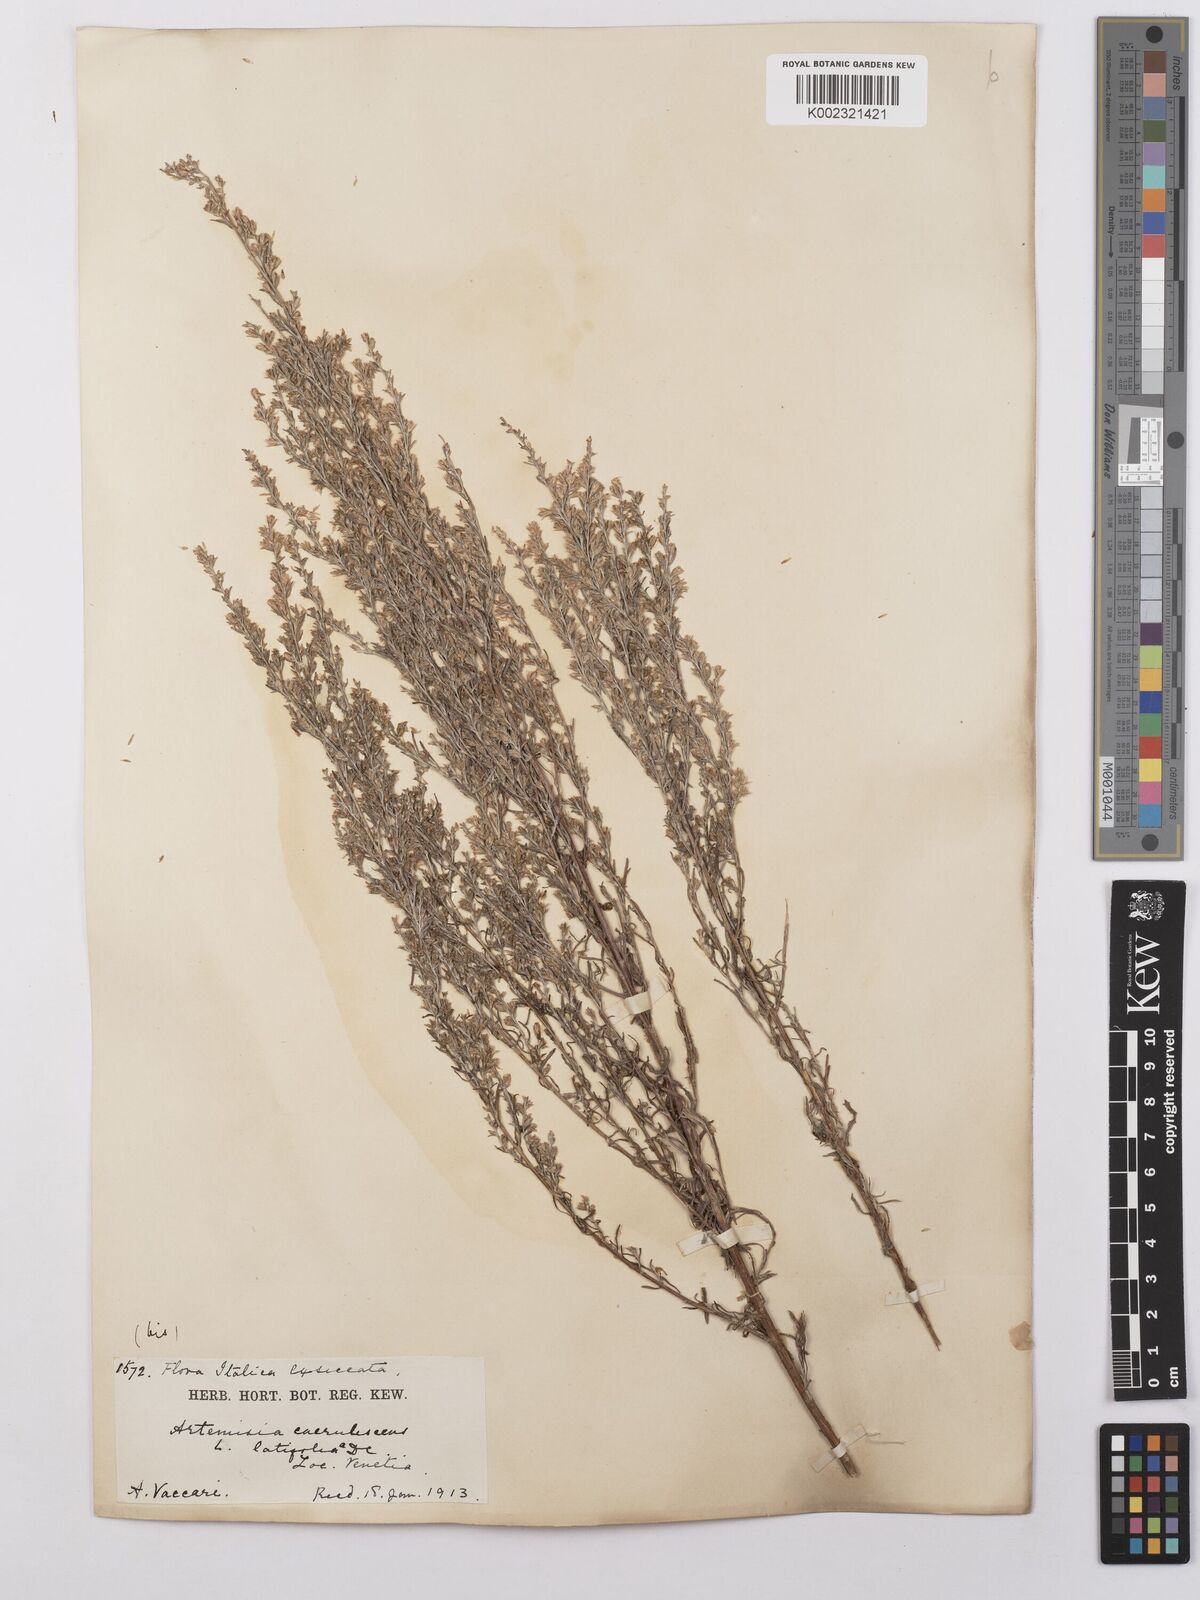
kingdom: Plantae
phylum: Tracheophyta
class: Magnoliopsida
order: Asterales
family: Asteraceae
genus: Artemisia
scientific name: Artemisia caerulescens
